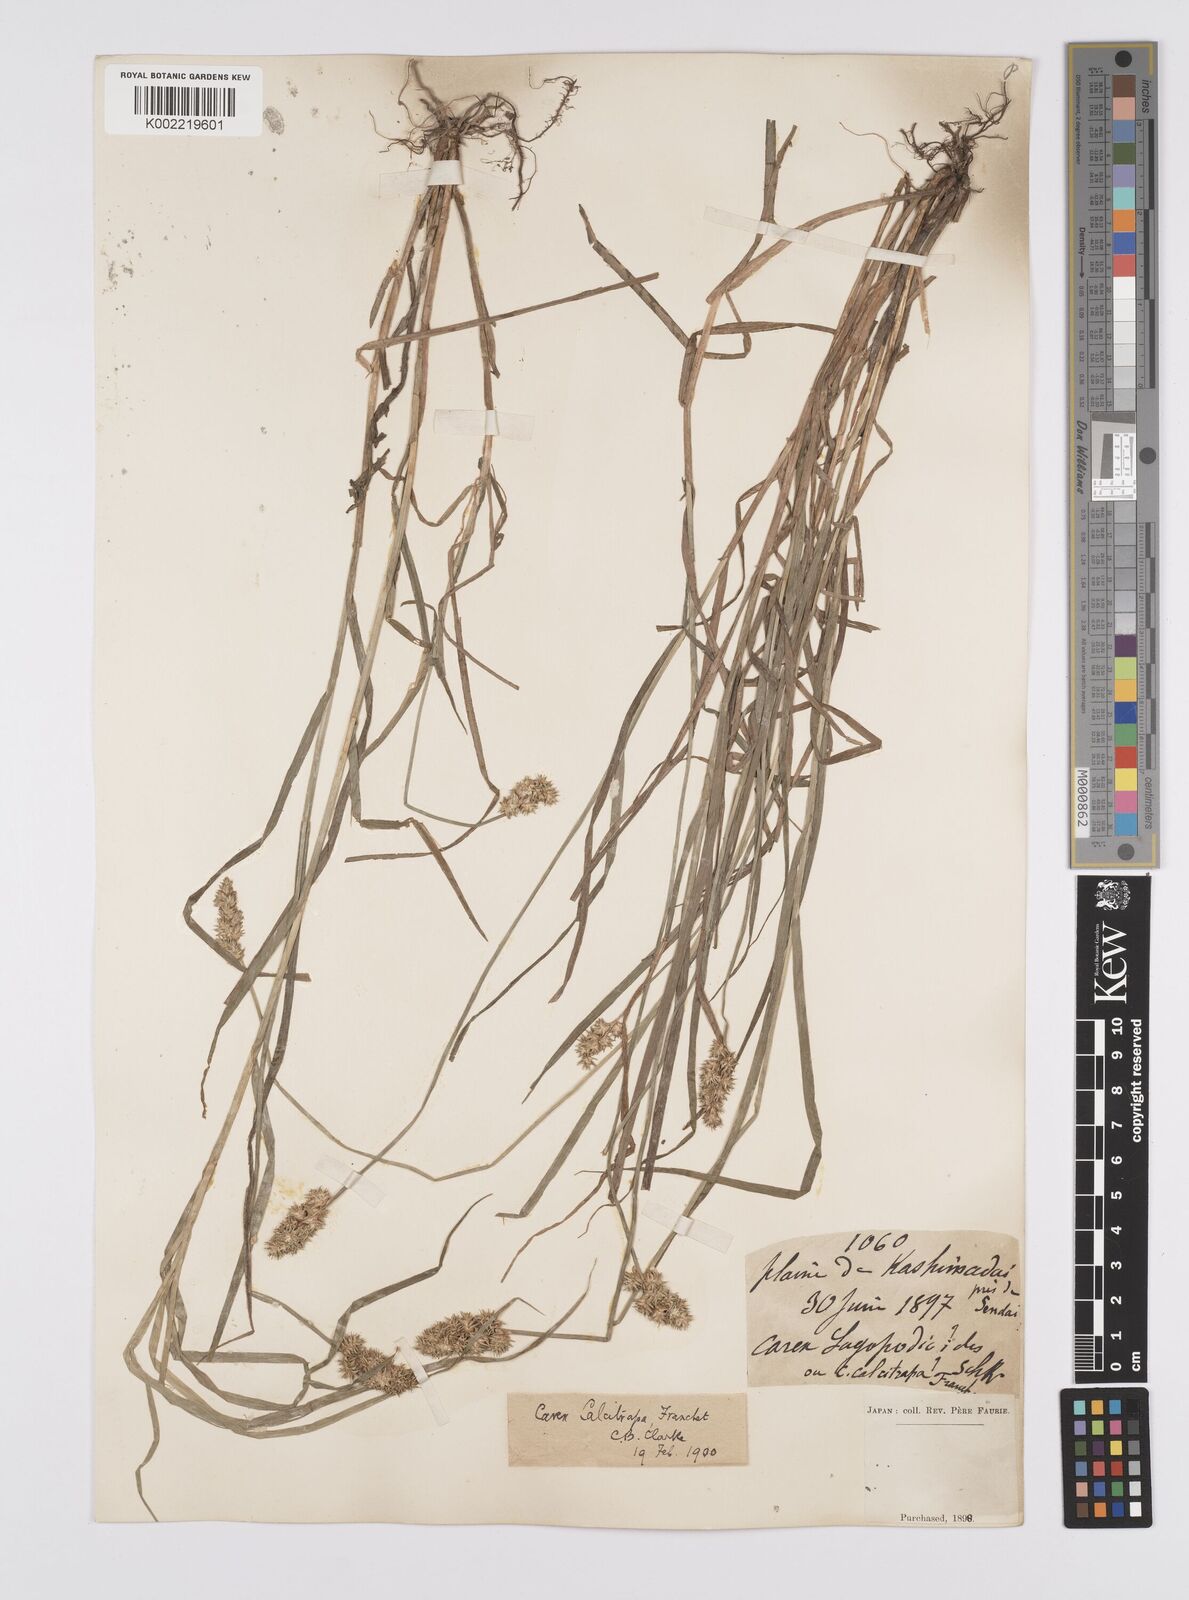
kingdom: Plantae
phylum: Tracheophyta
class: Liliopsida
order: Poales
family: Cyperaceae
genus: Carex
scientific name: Carex maackii
